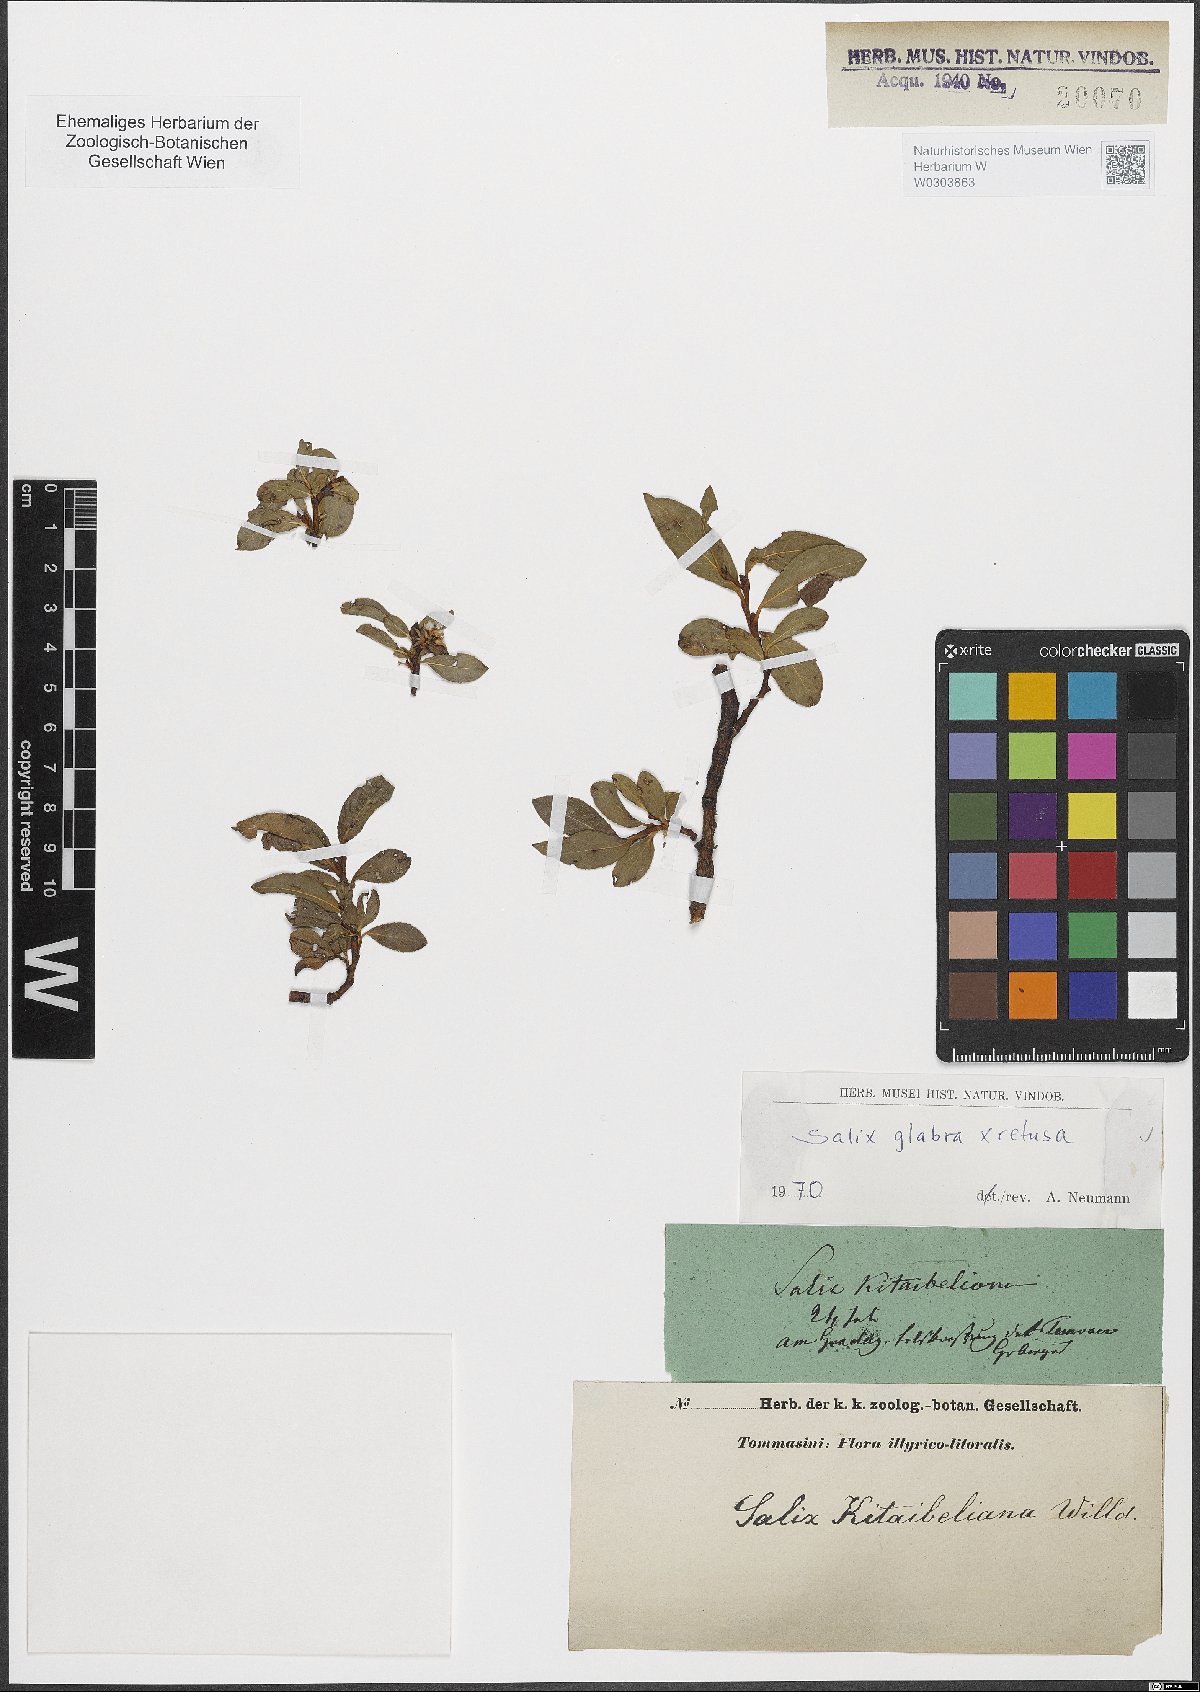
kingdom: Plantae
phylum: Tracheophyta
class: Magnoliopsida
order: Malpighiales
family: Salicaceae
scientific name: Salicaceae
